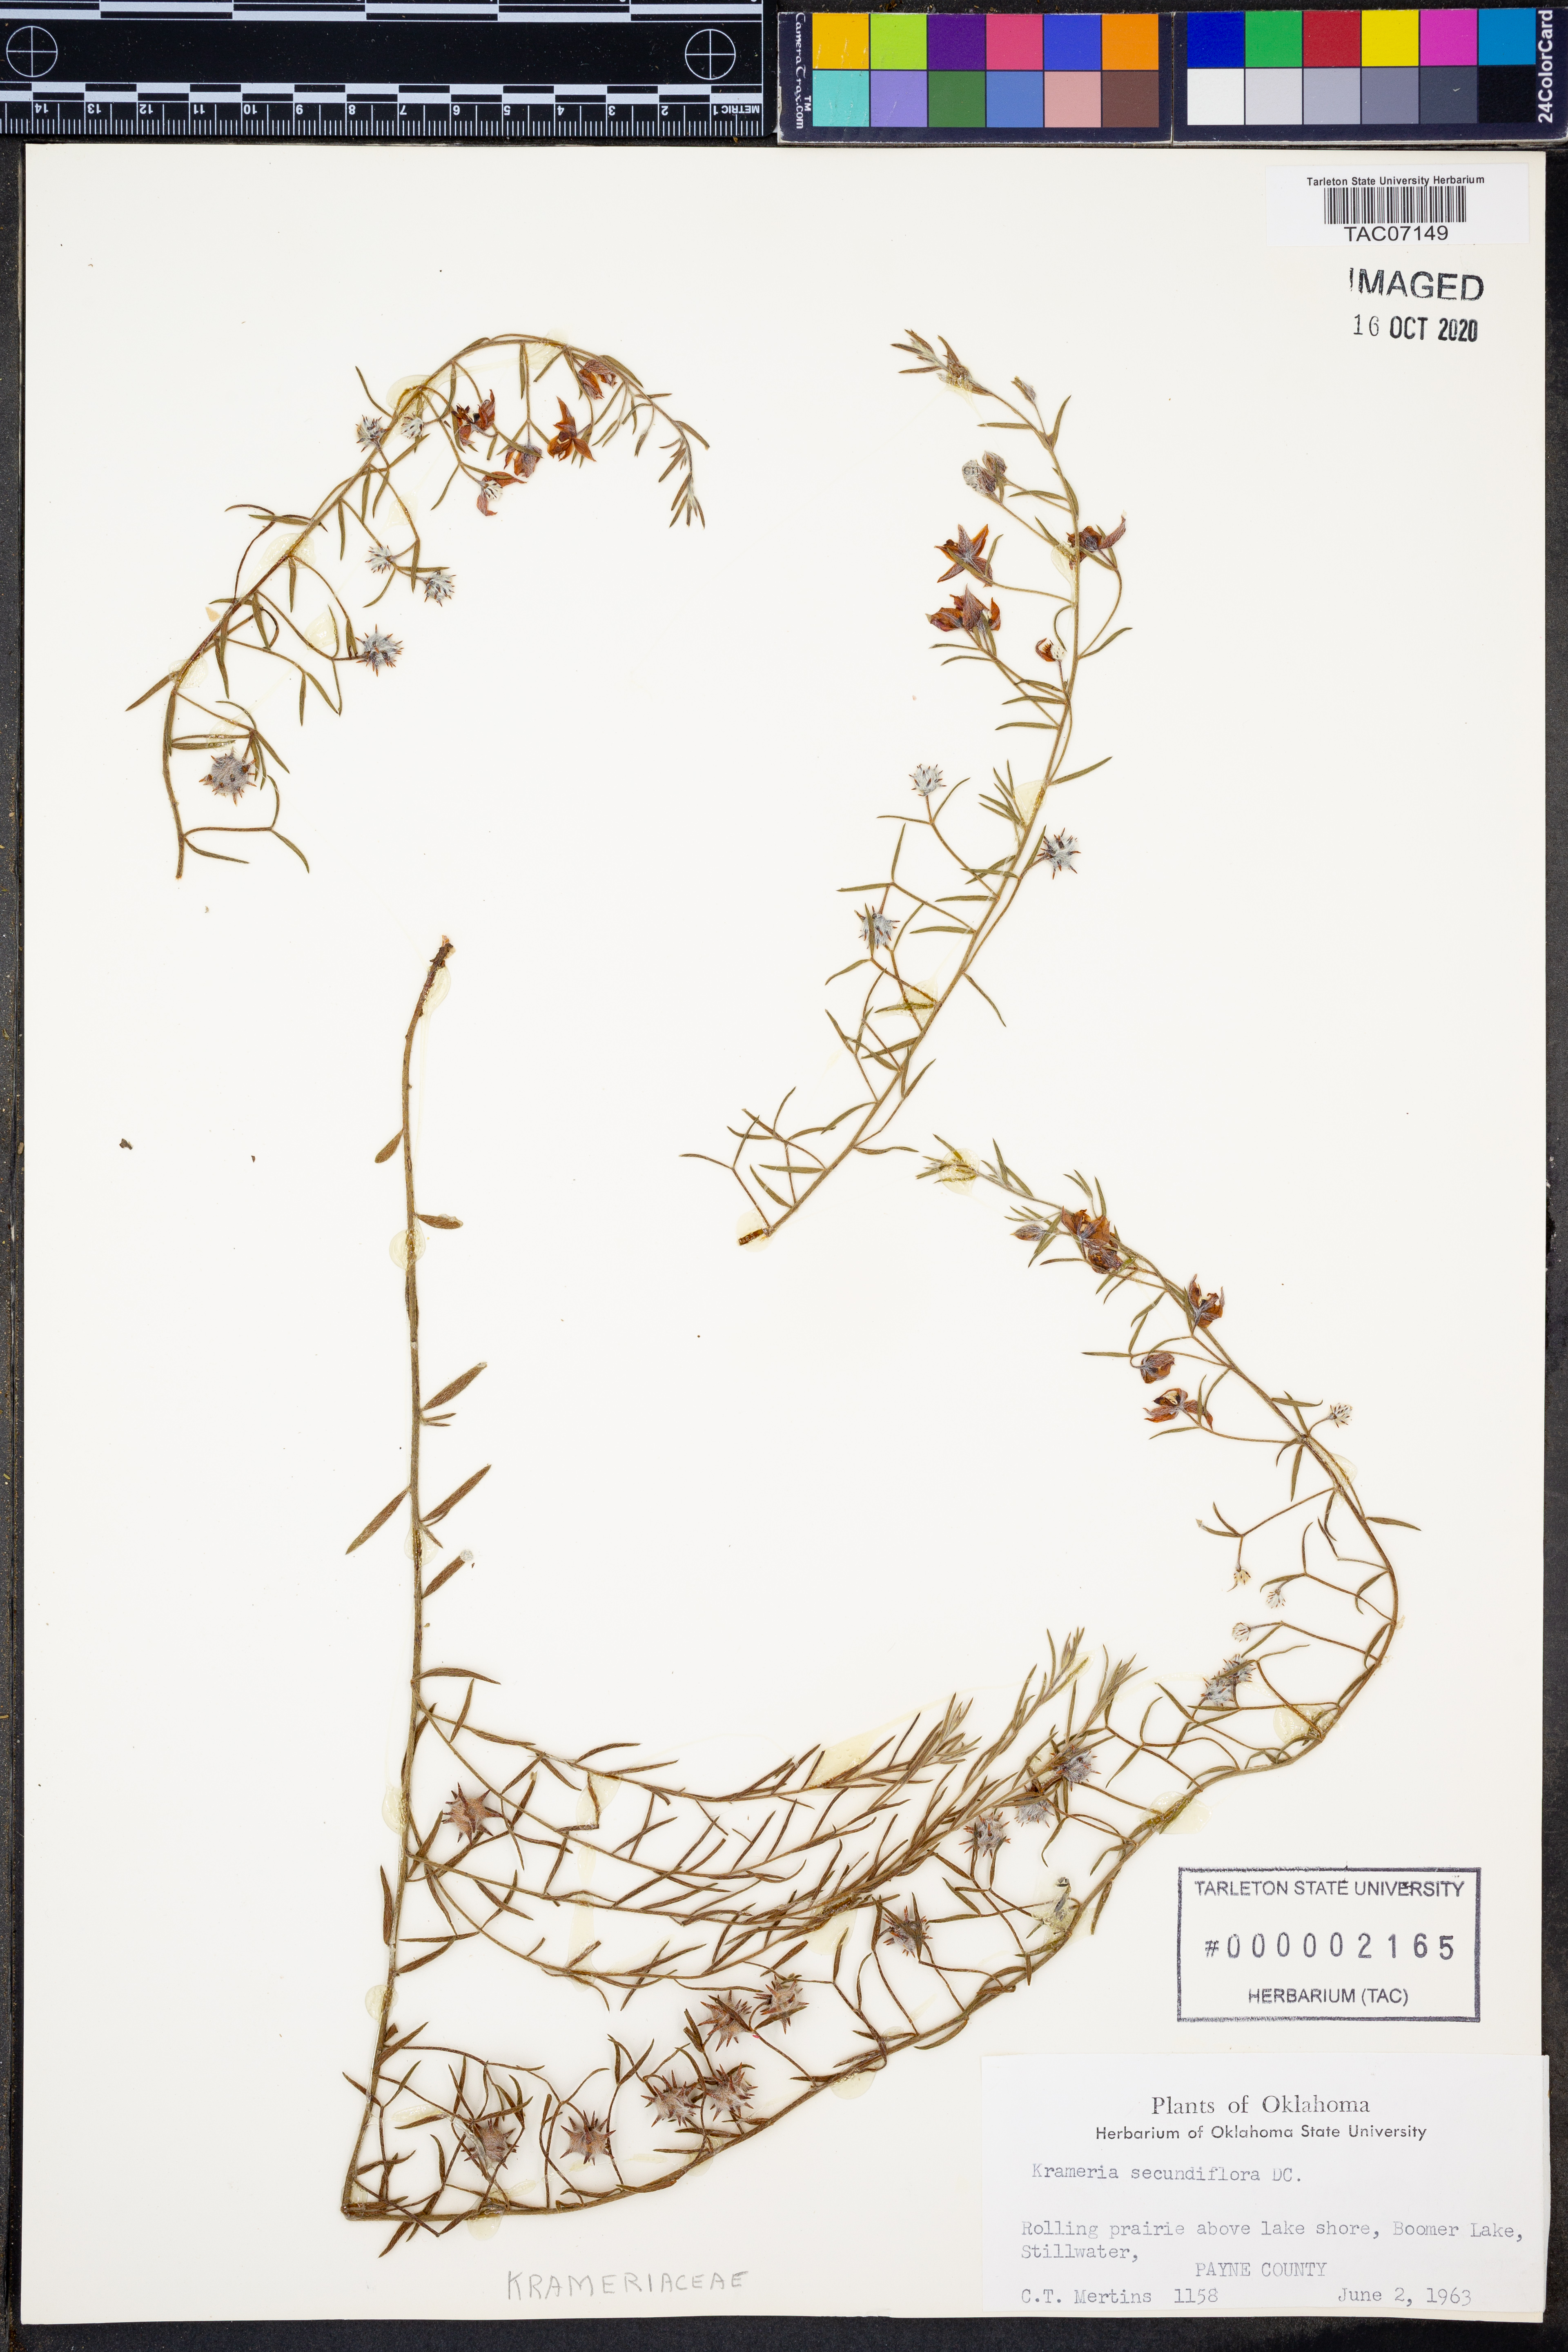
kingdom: Plantae
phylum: Tracheophyta
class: Magnoliopsida
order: Zygophyllales
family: Krameriaceae
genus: Krameria
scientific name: Krameria secundiflora
